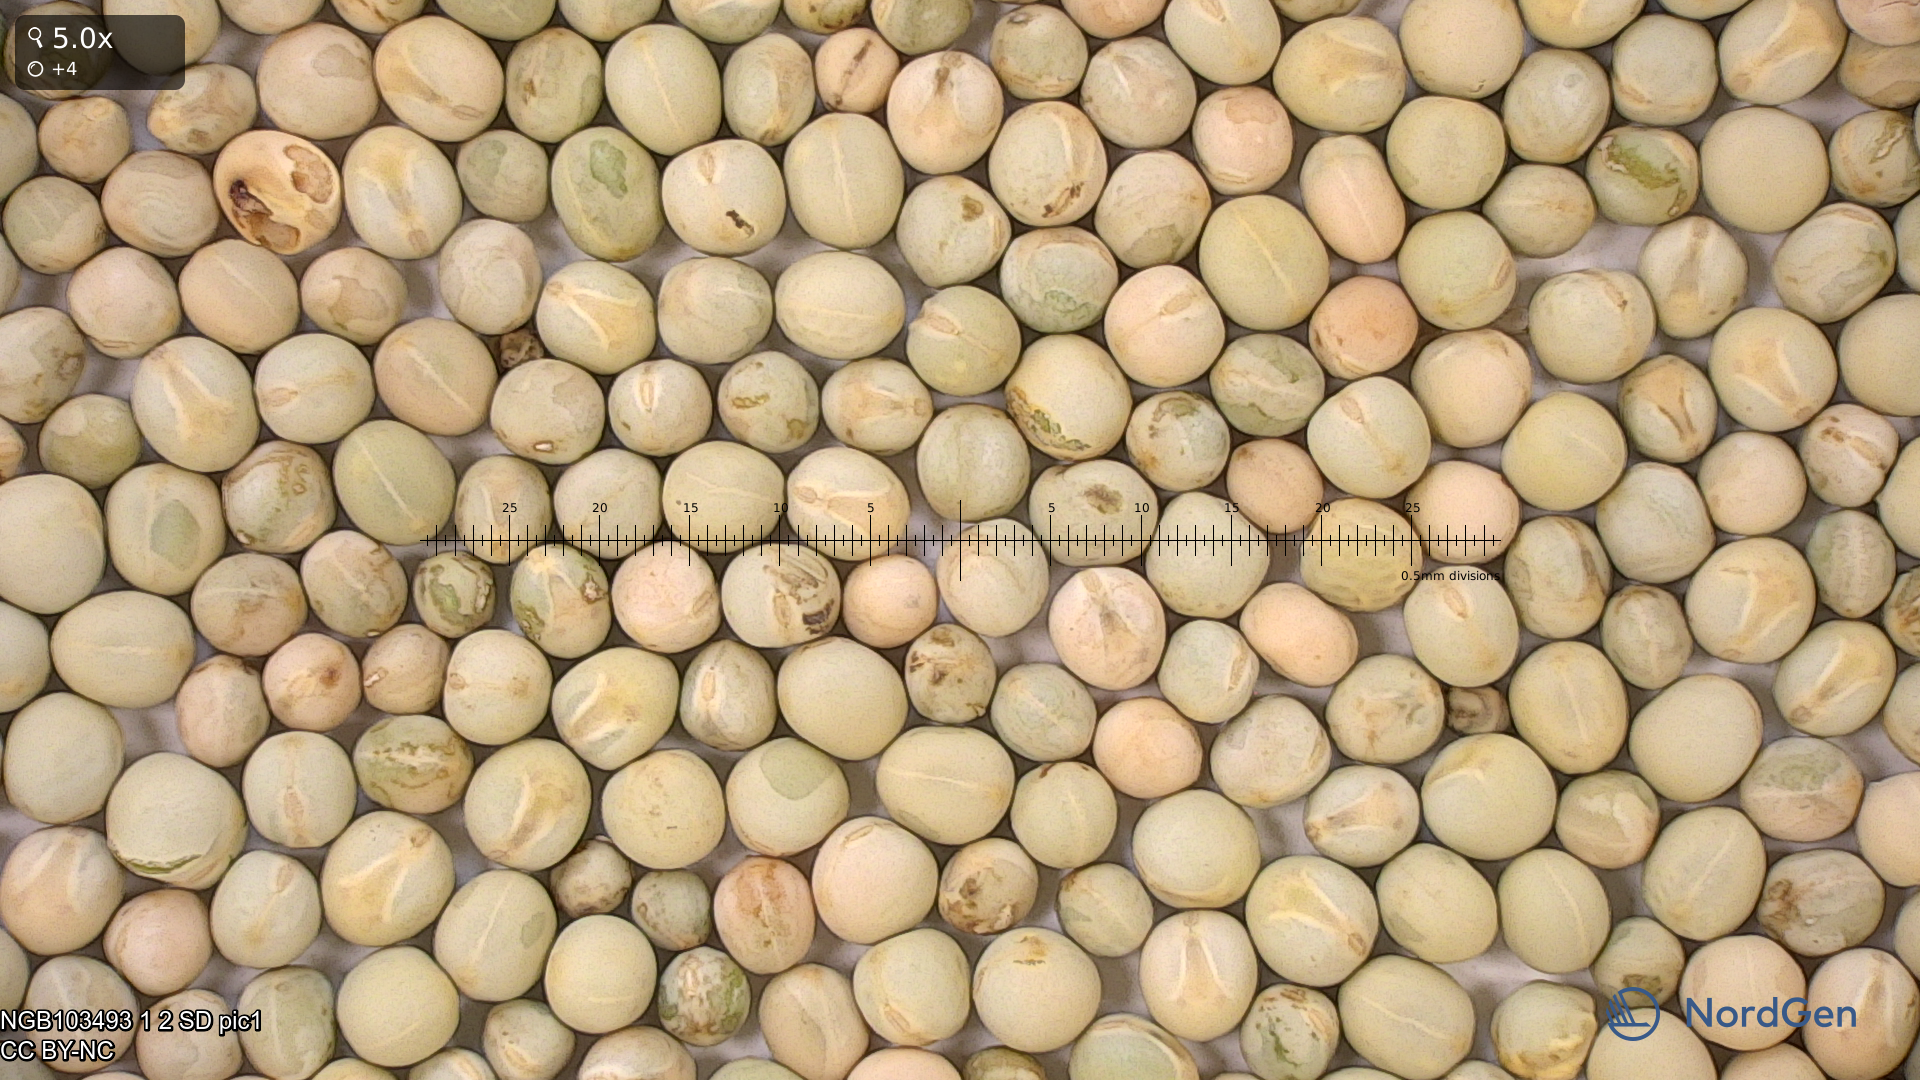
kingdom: Plantae
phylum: Tracheophyta
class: Magnoliopsida
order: Fabales
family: Fabaceae
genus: Lathyrus
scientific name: Lathyrus oleraceus
